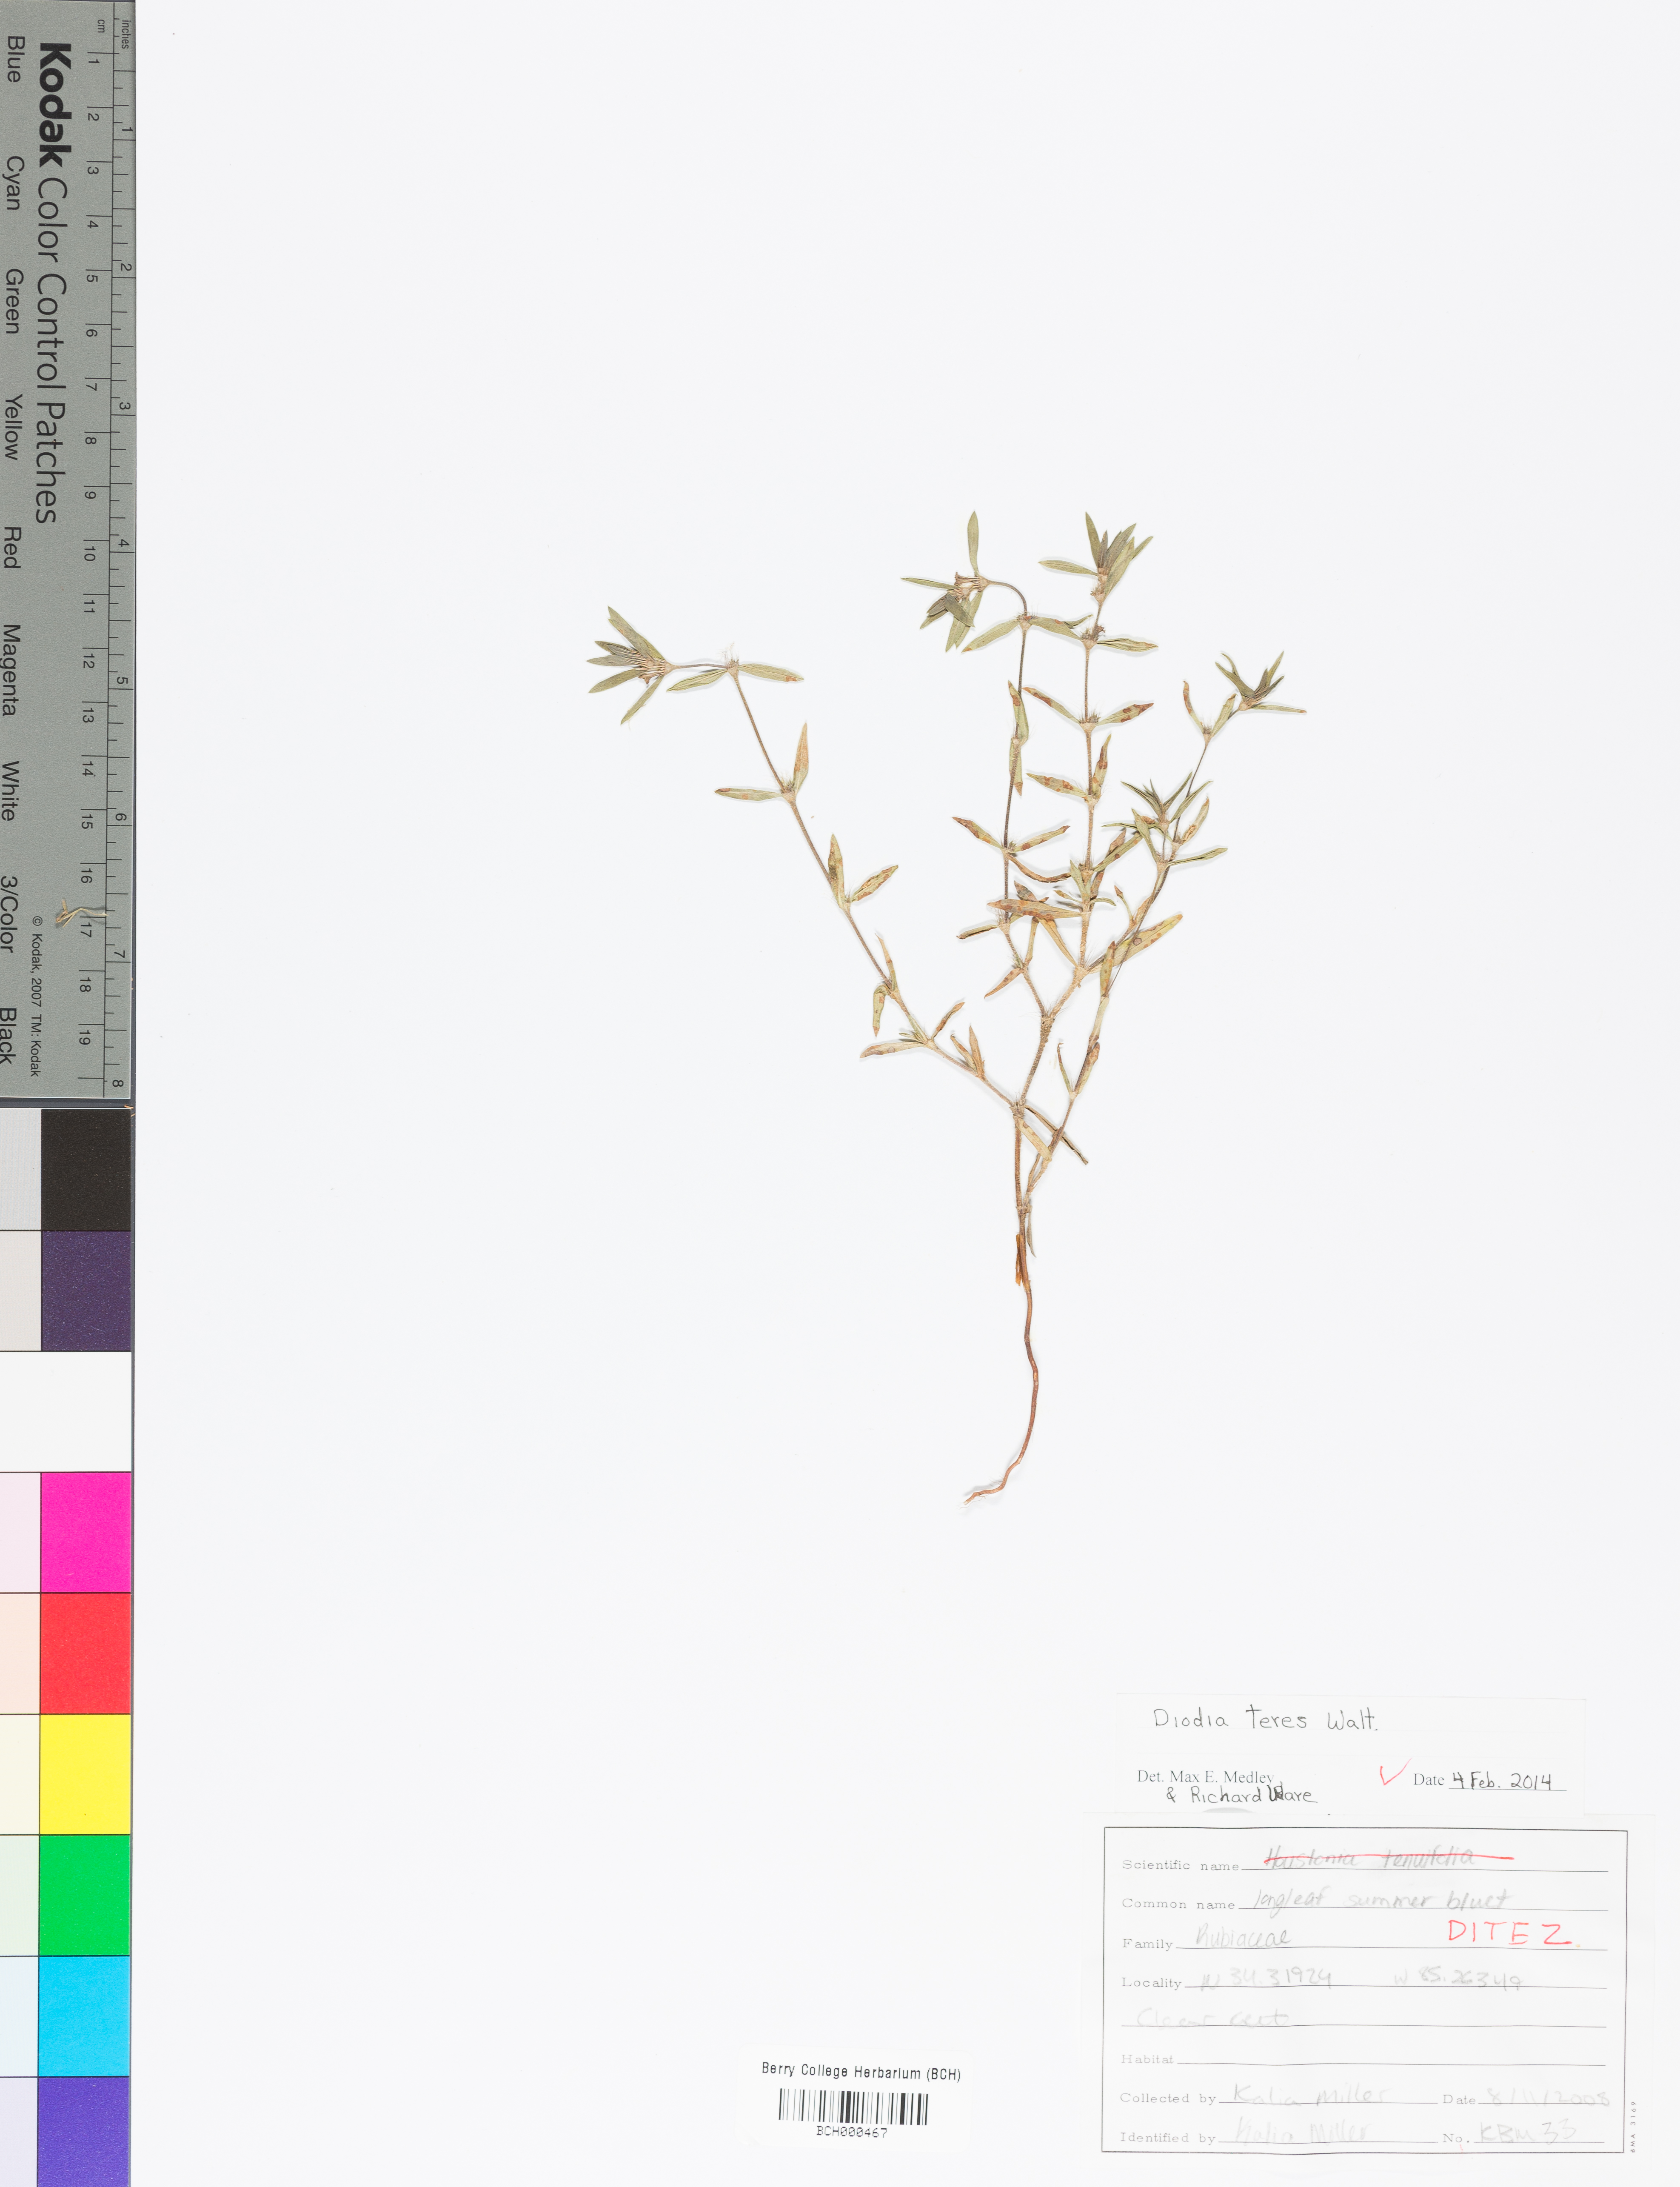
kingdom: Plantae
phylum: Tracheophyta
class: Magnoliopsida
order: Gentianales
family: Rubiaceae
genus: Hexasepalum
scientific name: Hexasepalum teres
